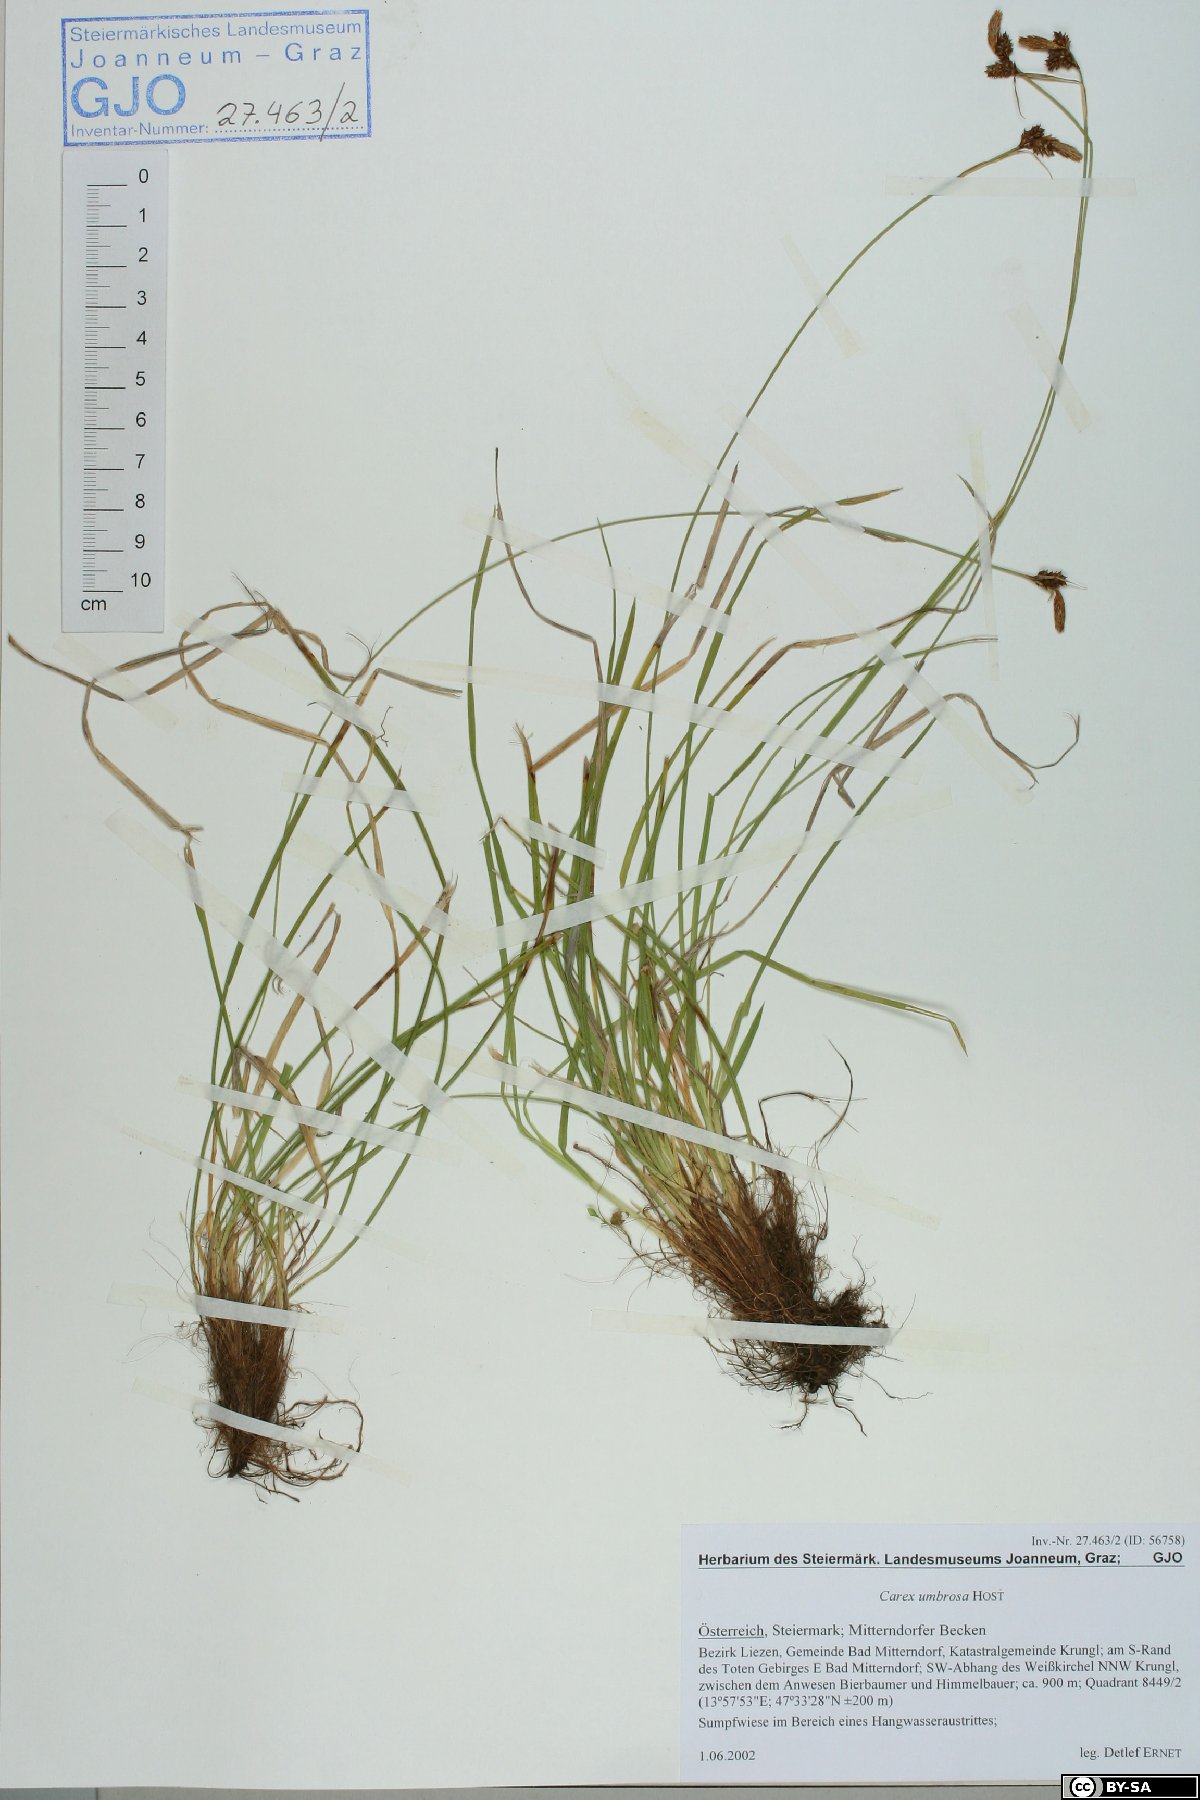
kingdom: Plantae
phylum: Tracheophyta
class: Liliopsida
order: Poales
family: Cyperaceae
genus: Carex
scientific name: Carex umbrosa
